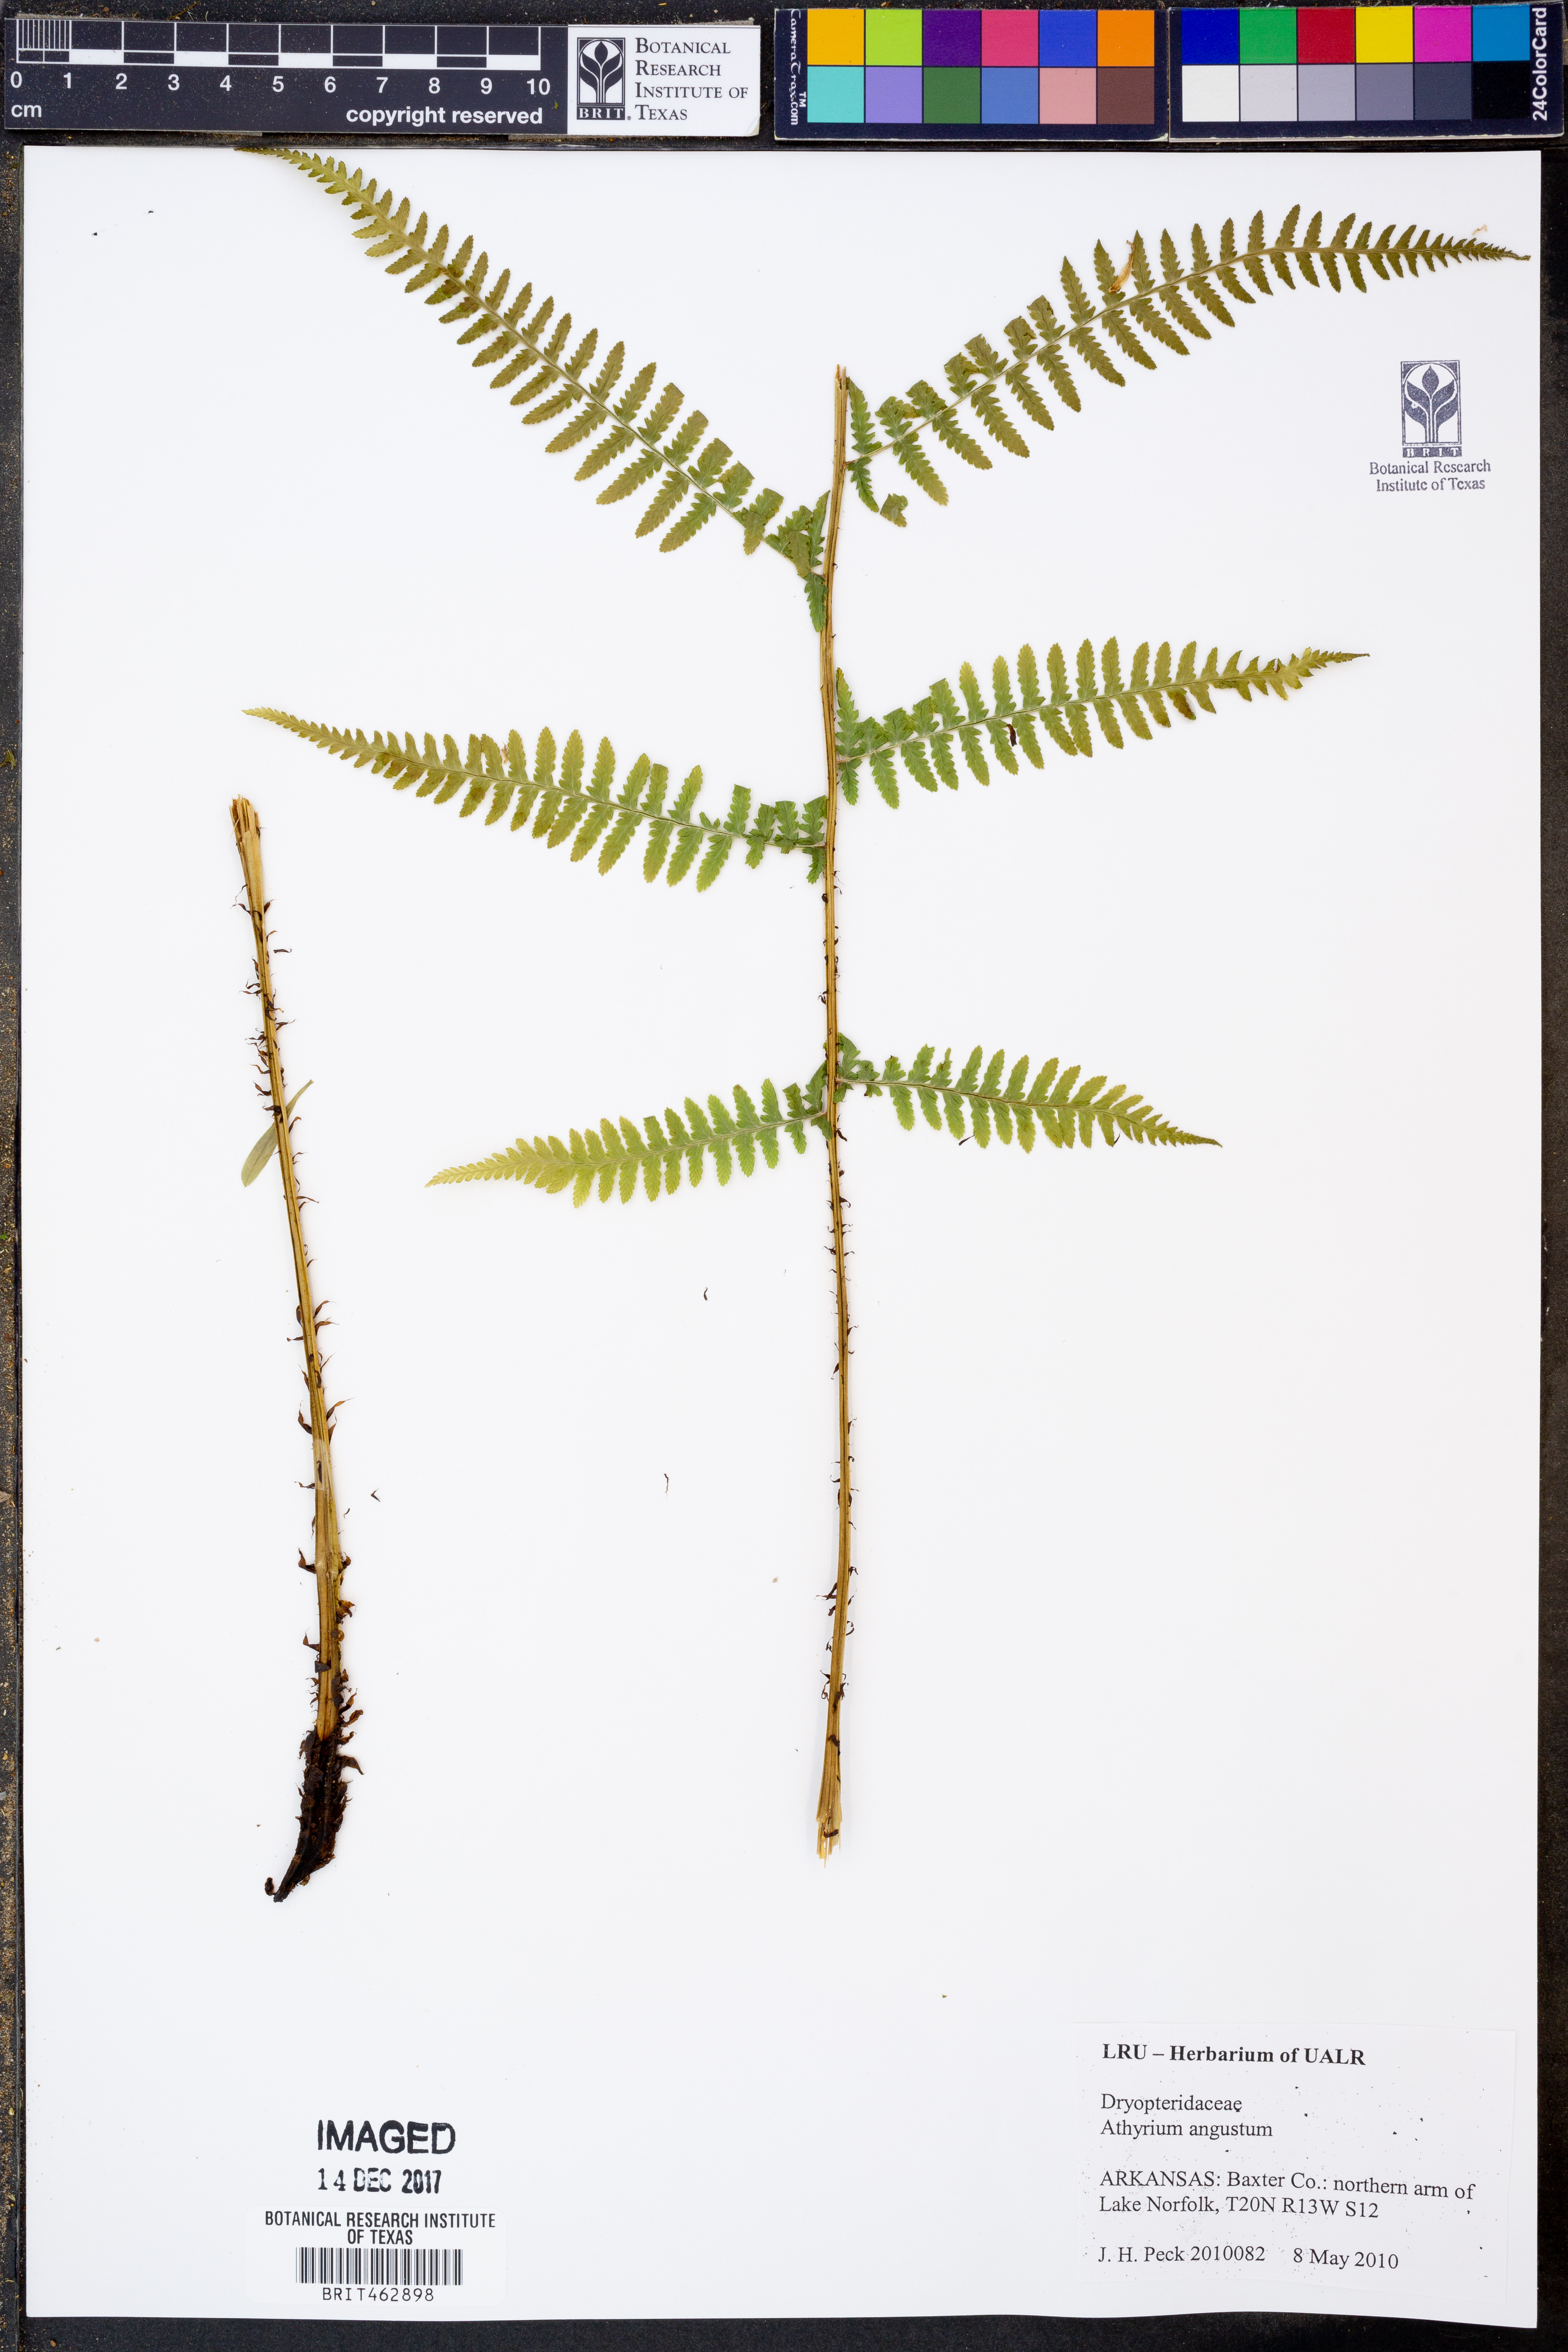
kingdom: Plantae
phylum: Tracheophyta
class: Polypodiopsida
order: Polypodiales
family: Athyriaceae
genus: Athyrium
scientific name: Athyrium angustum
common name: Northern lady fern
